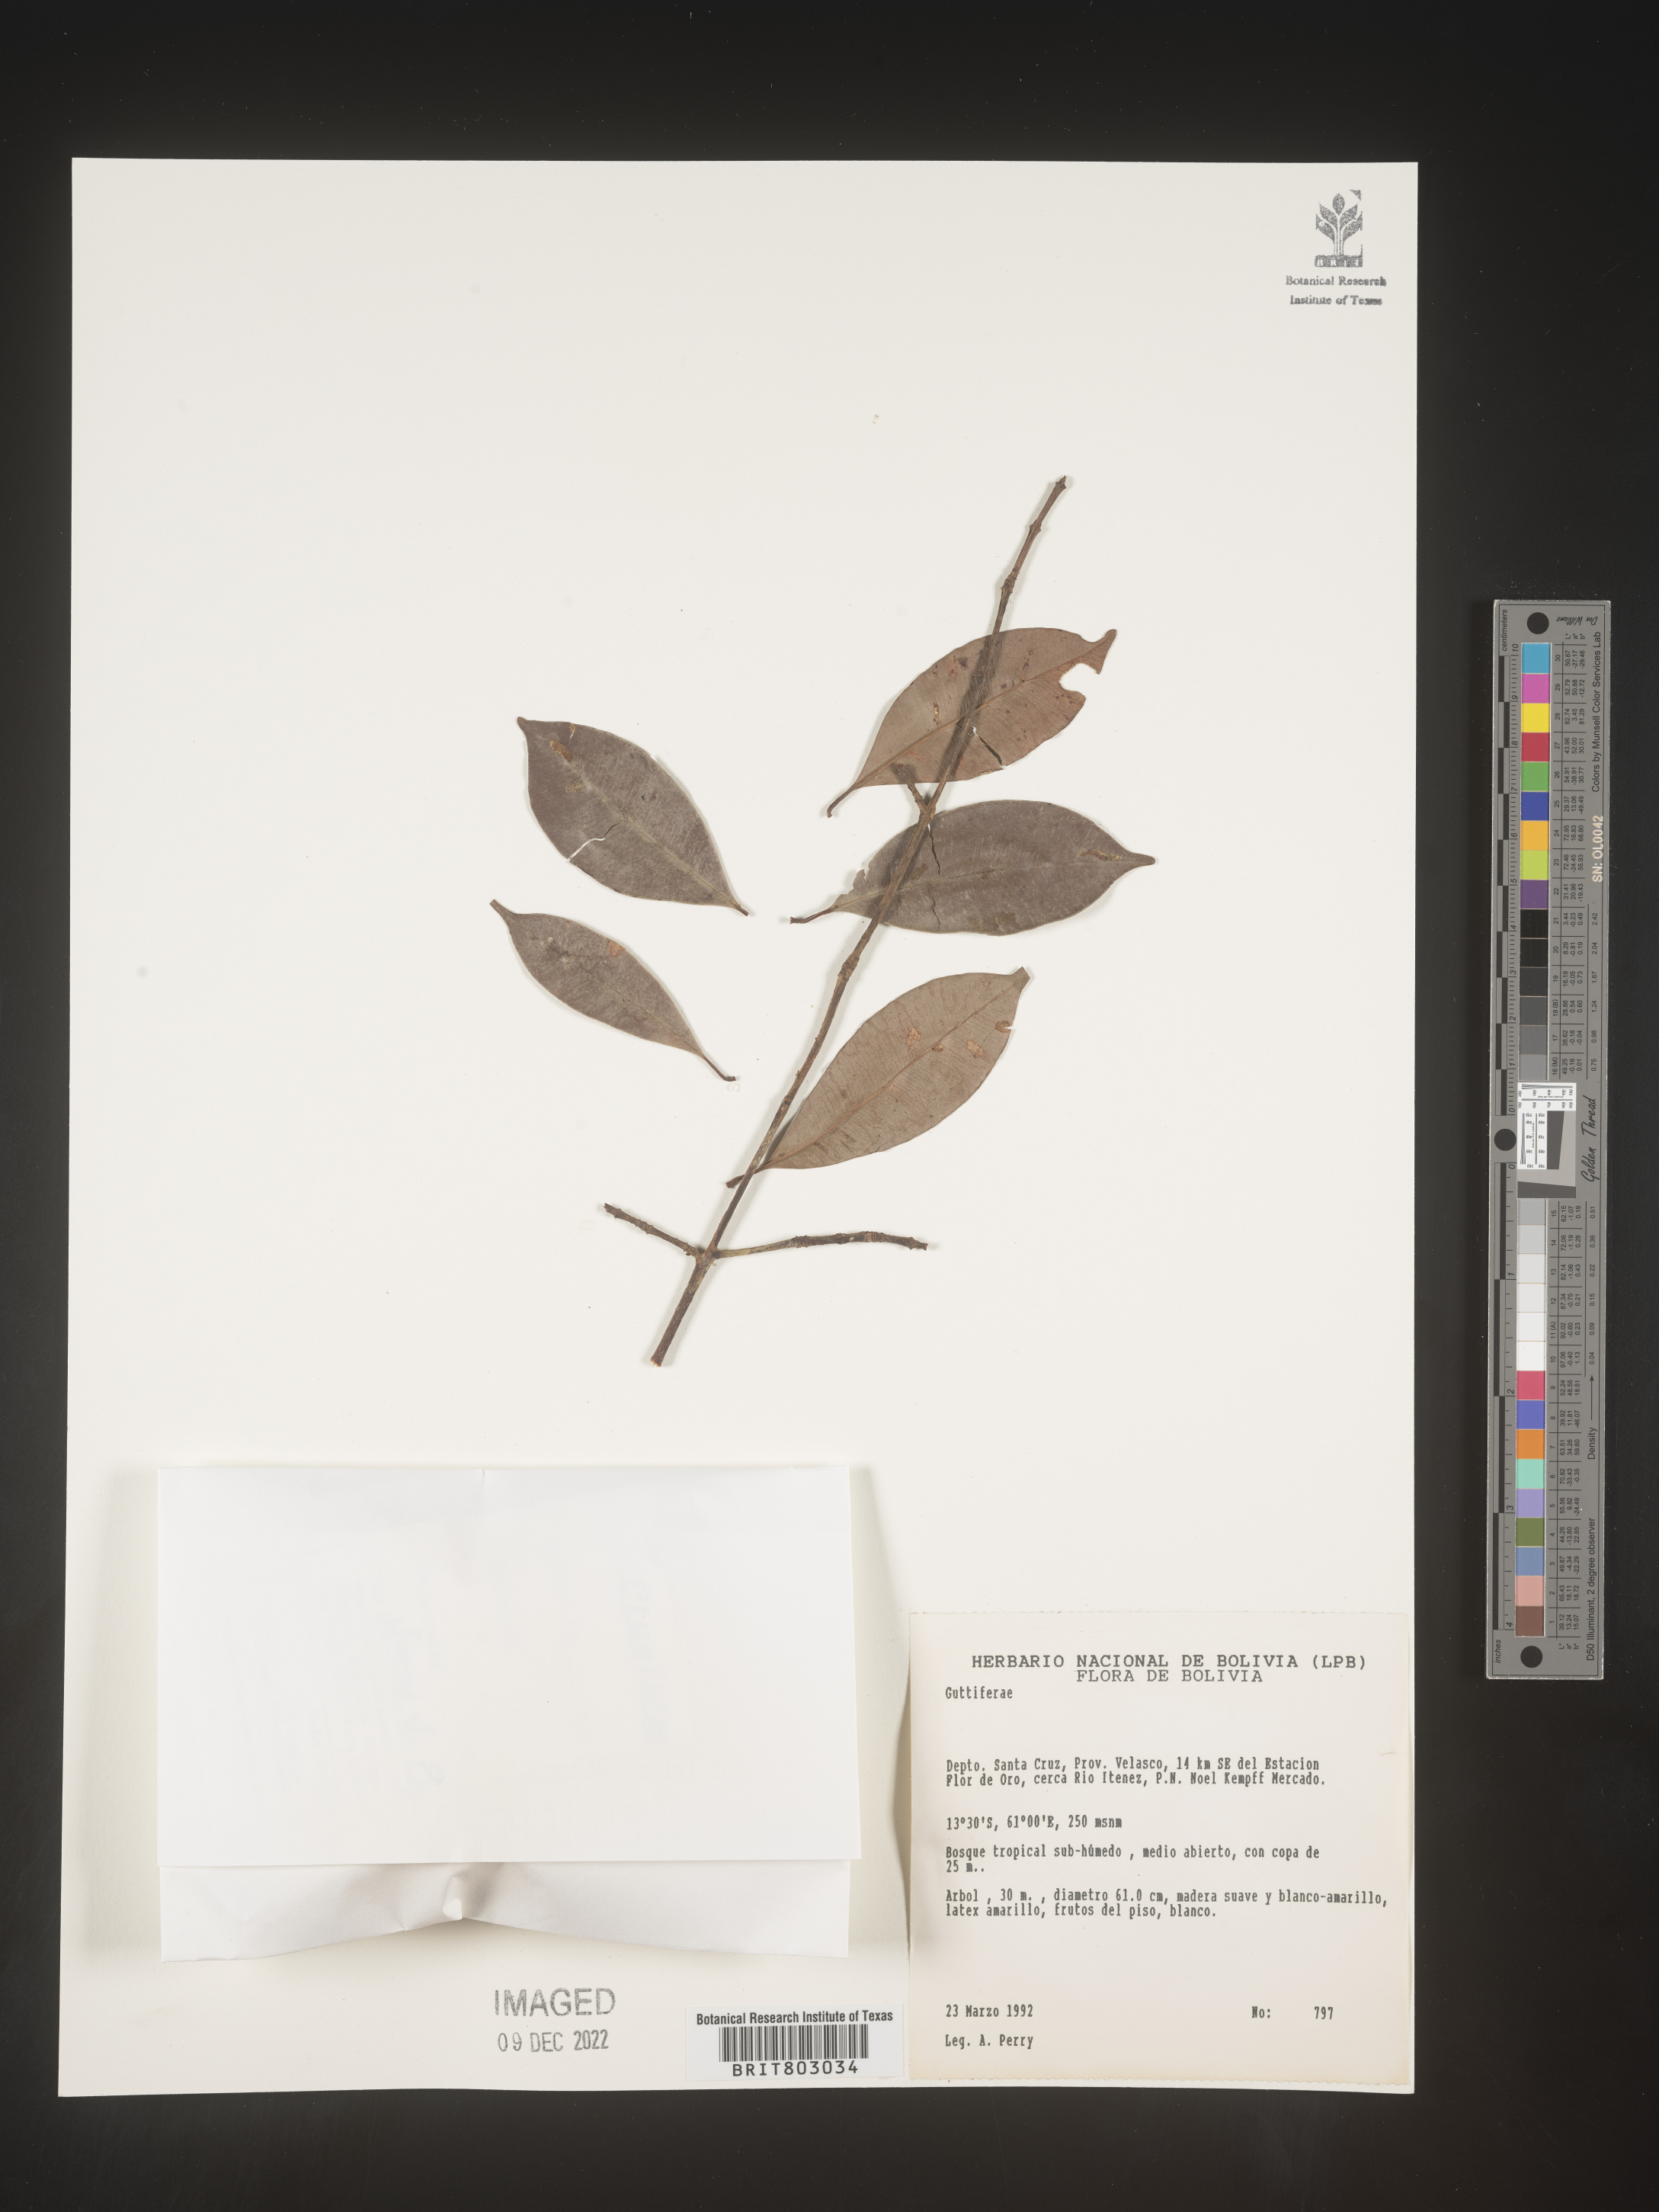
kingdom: Plantae
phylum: Tracheophyta
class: Magnoliopsida
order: Malpighiales
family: Clusiaceae
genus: Symphonia
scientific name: Symphonia
